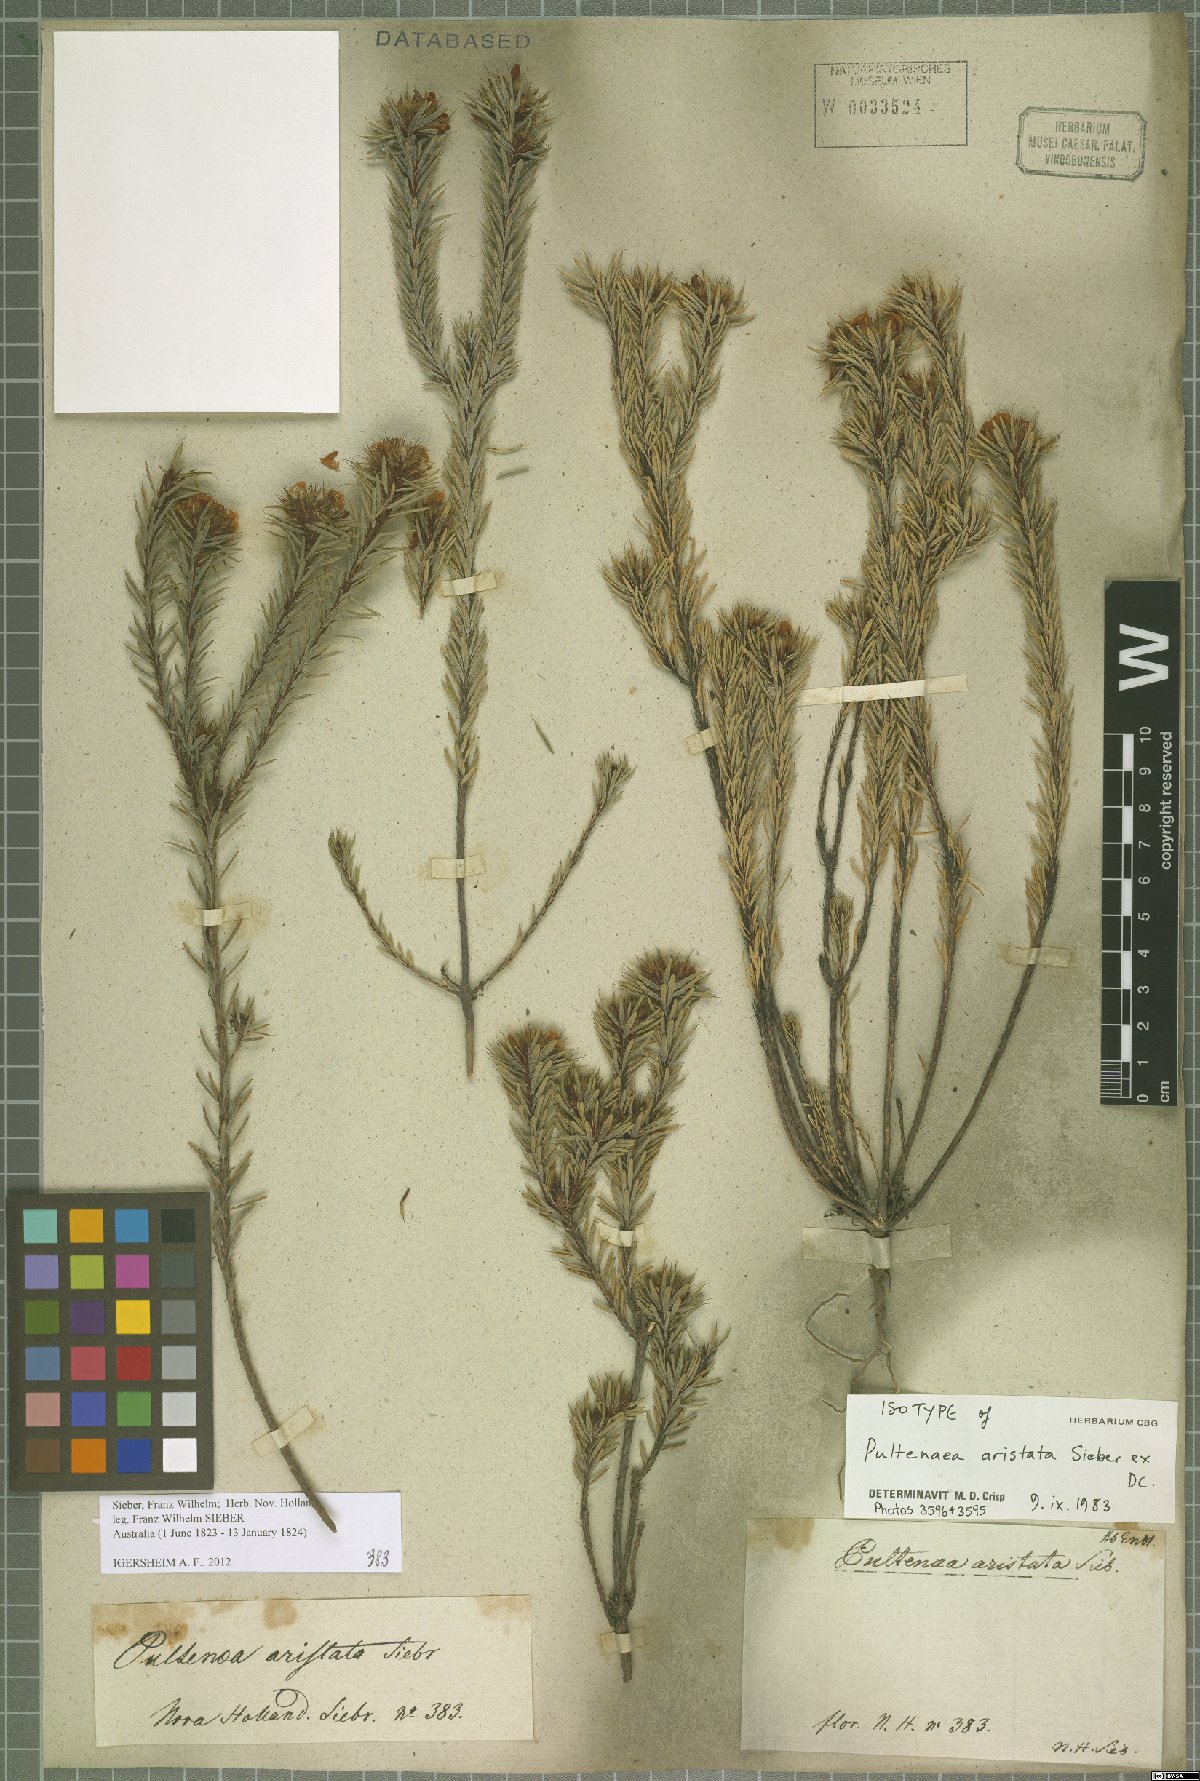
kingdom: Plantae
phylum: Tracheophyta
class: Magnoliopsida
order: Fabales
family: Fabaceae
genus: Pultenaea
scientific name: Pultenaea aristata
